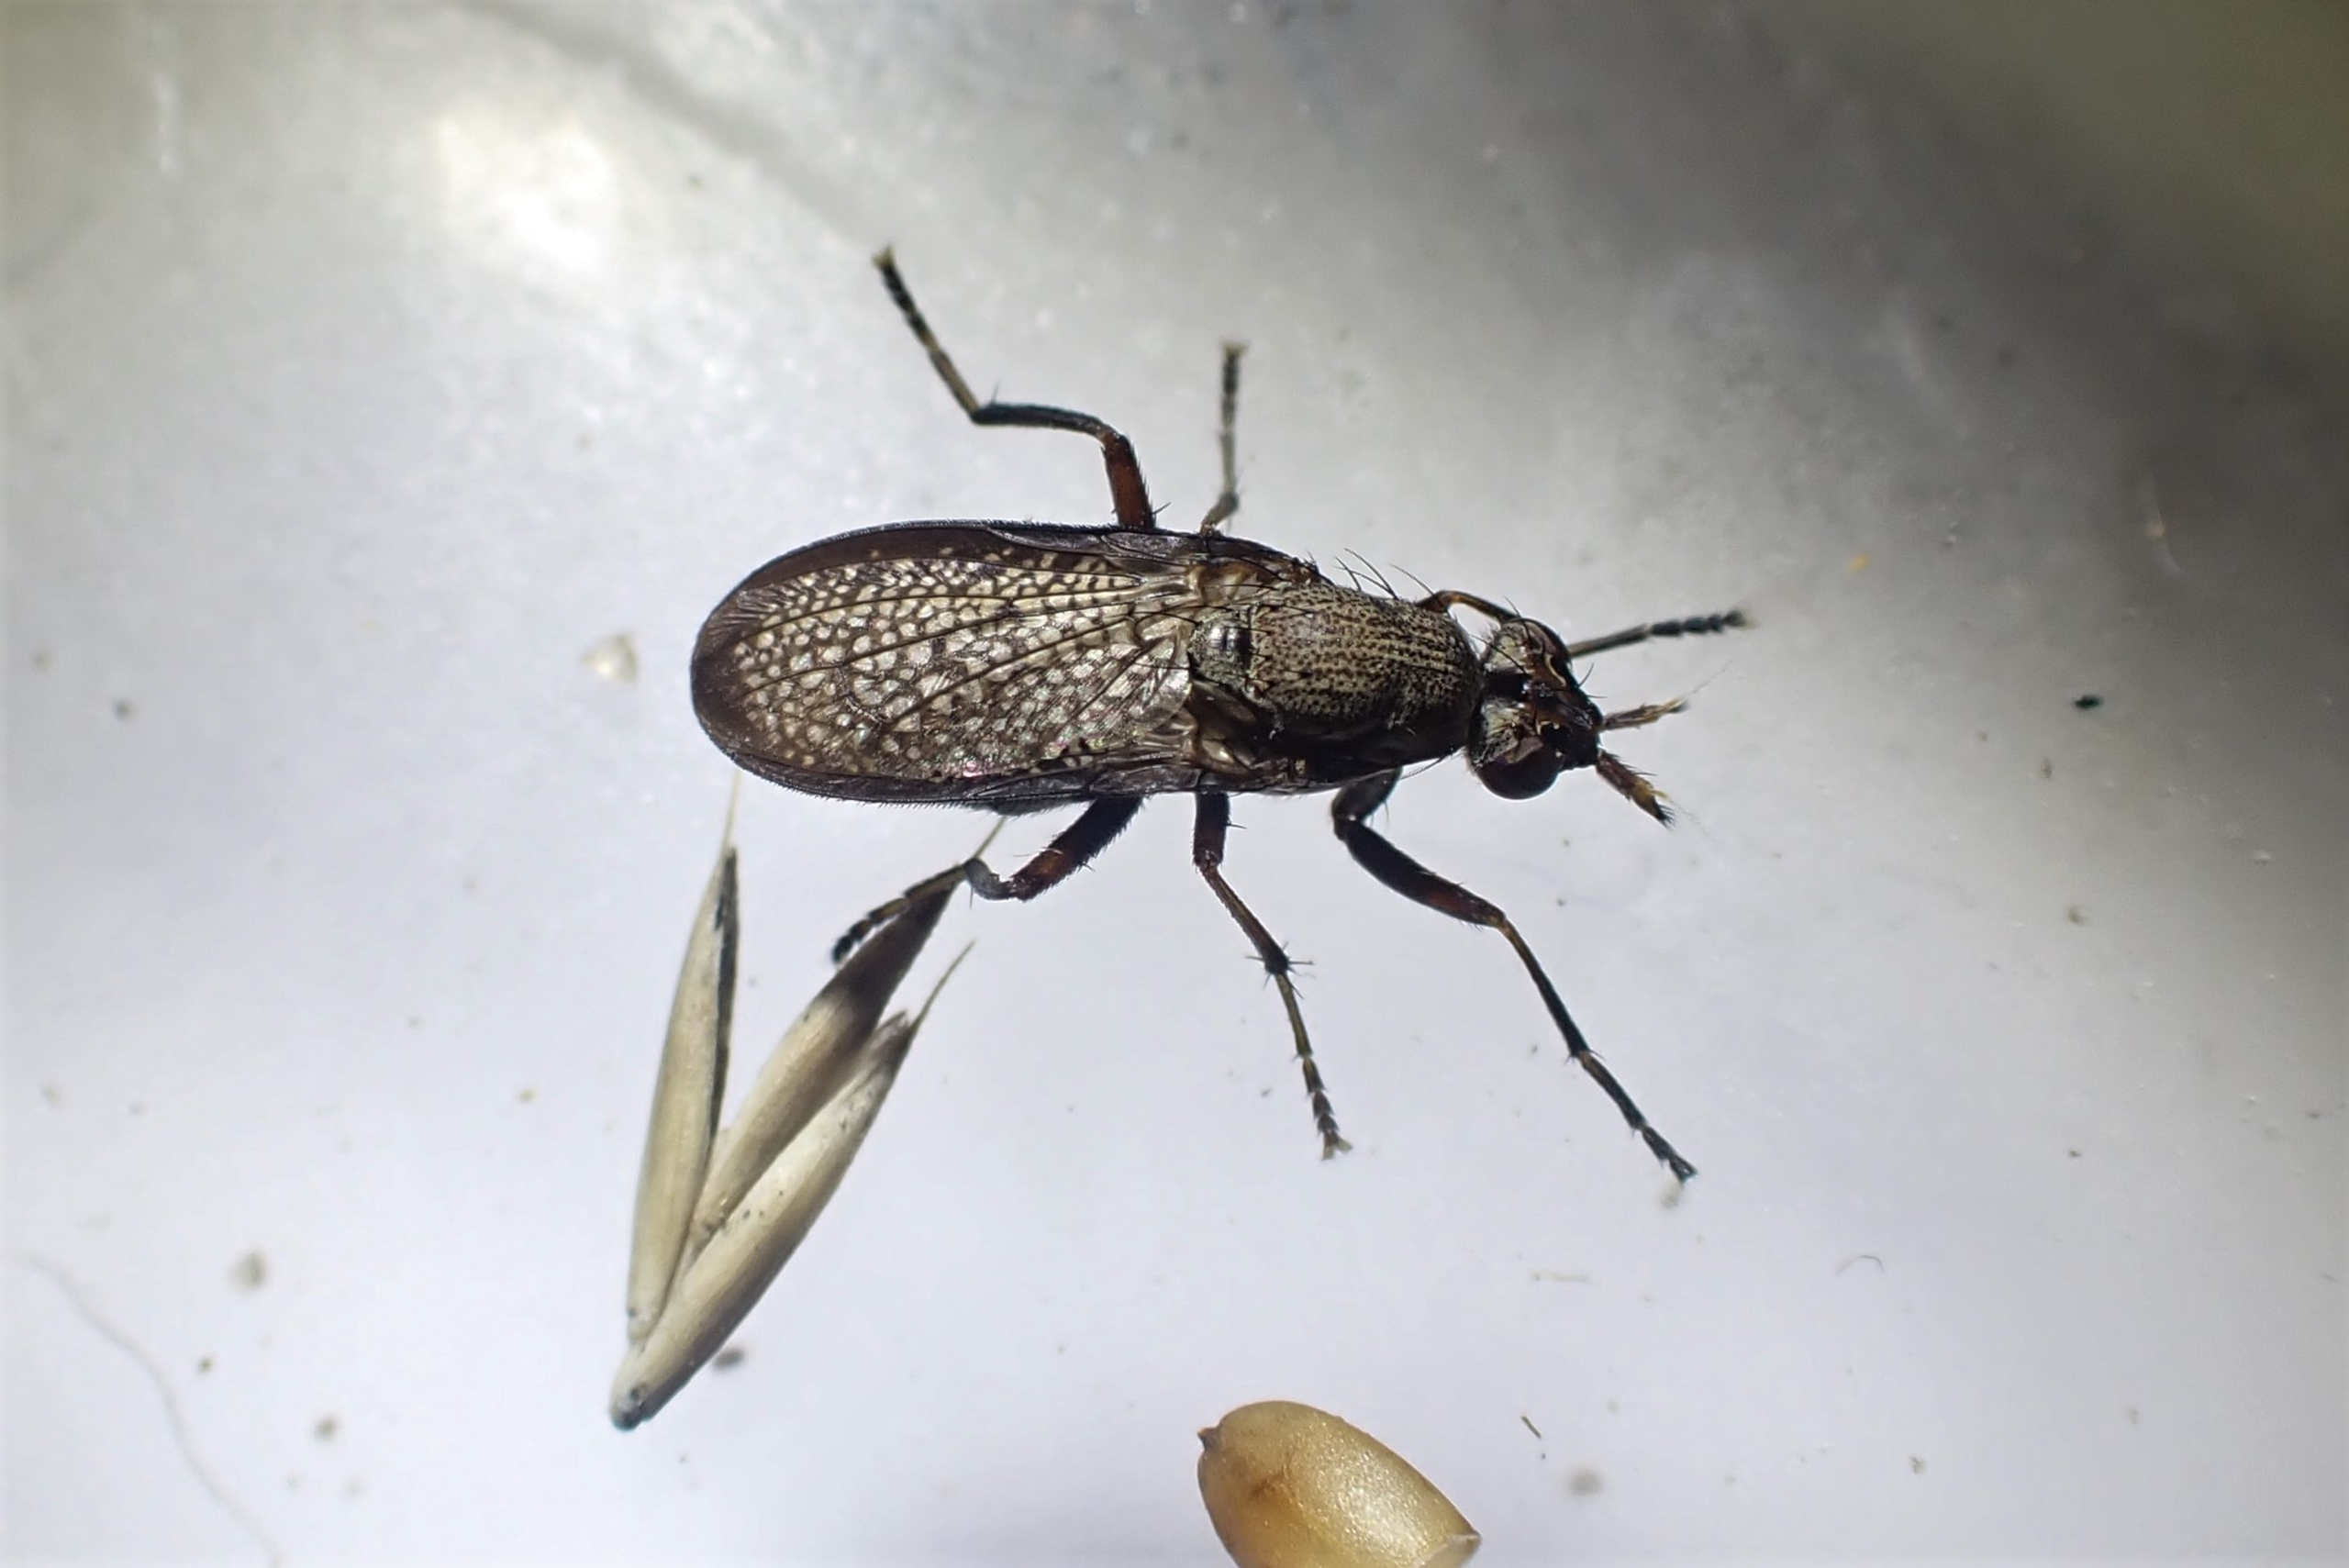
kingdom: Animalia
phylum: Arthropoda
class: Insecta
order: Diptera
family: Sciomyzidae
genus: Coremacera
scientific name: Coremacera marginata
